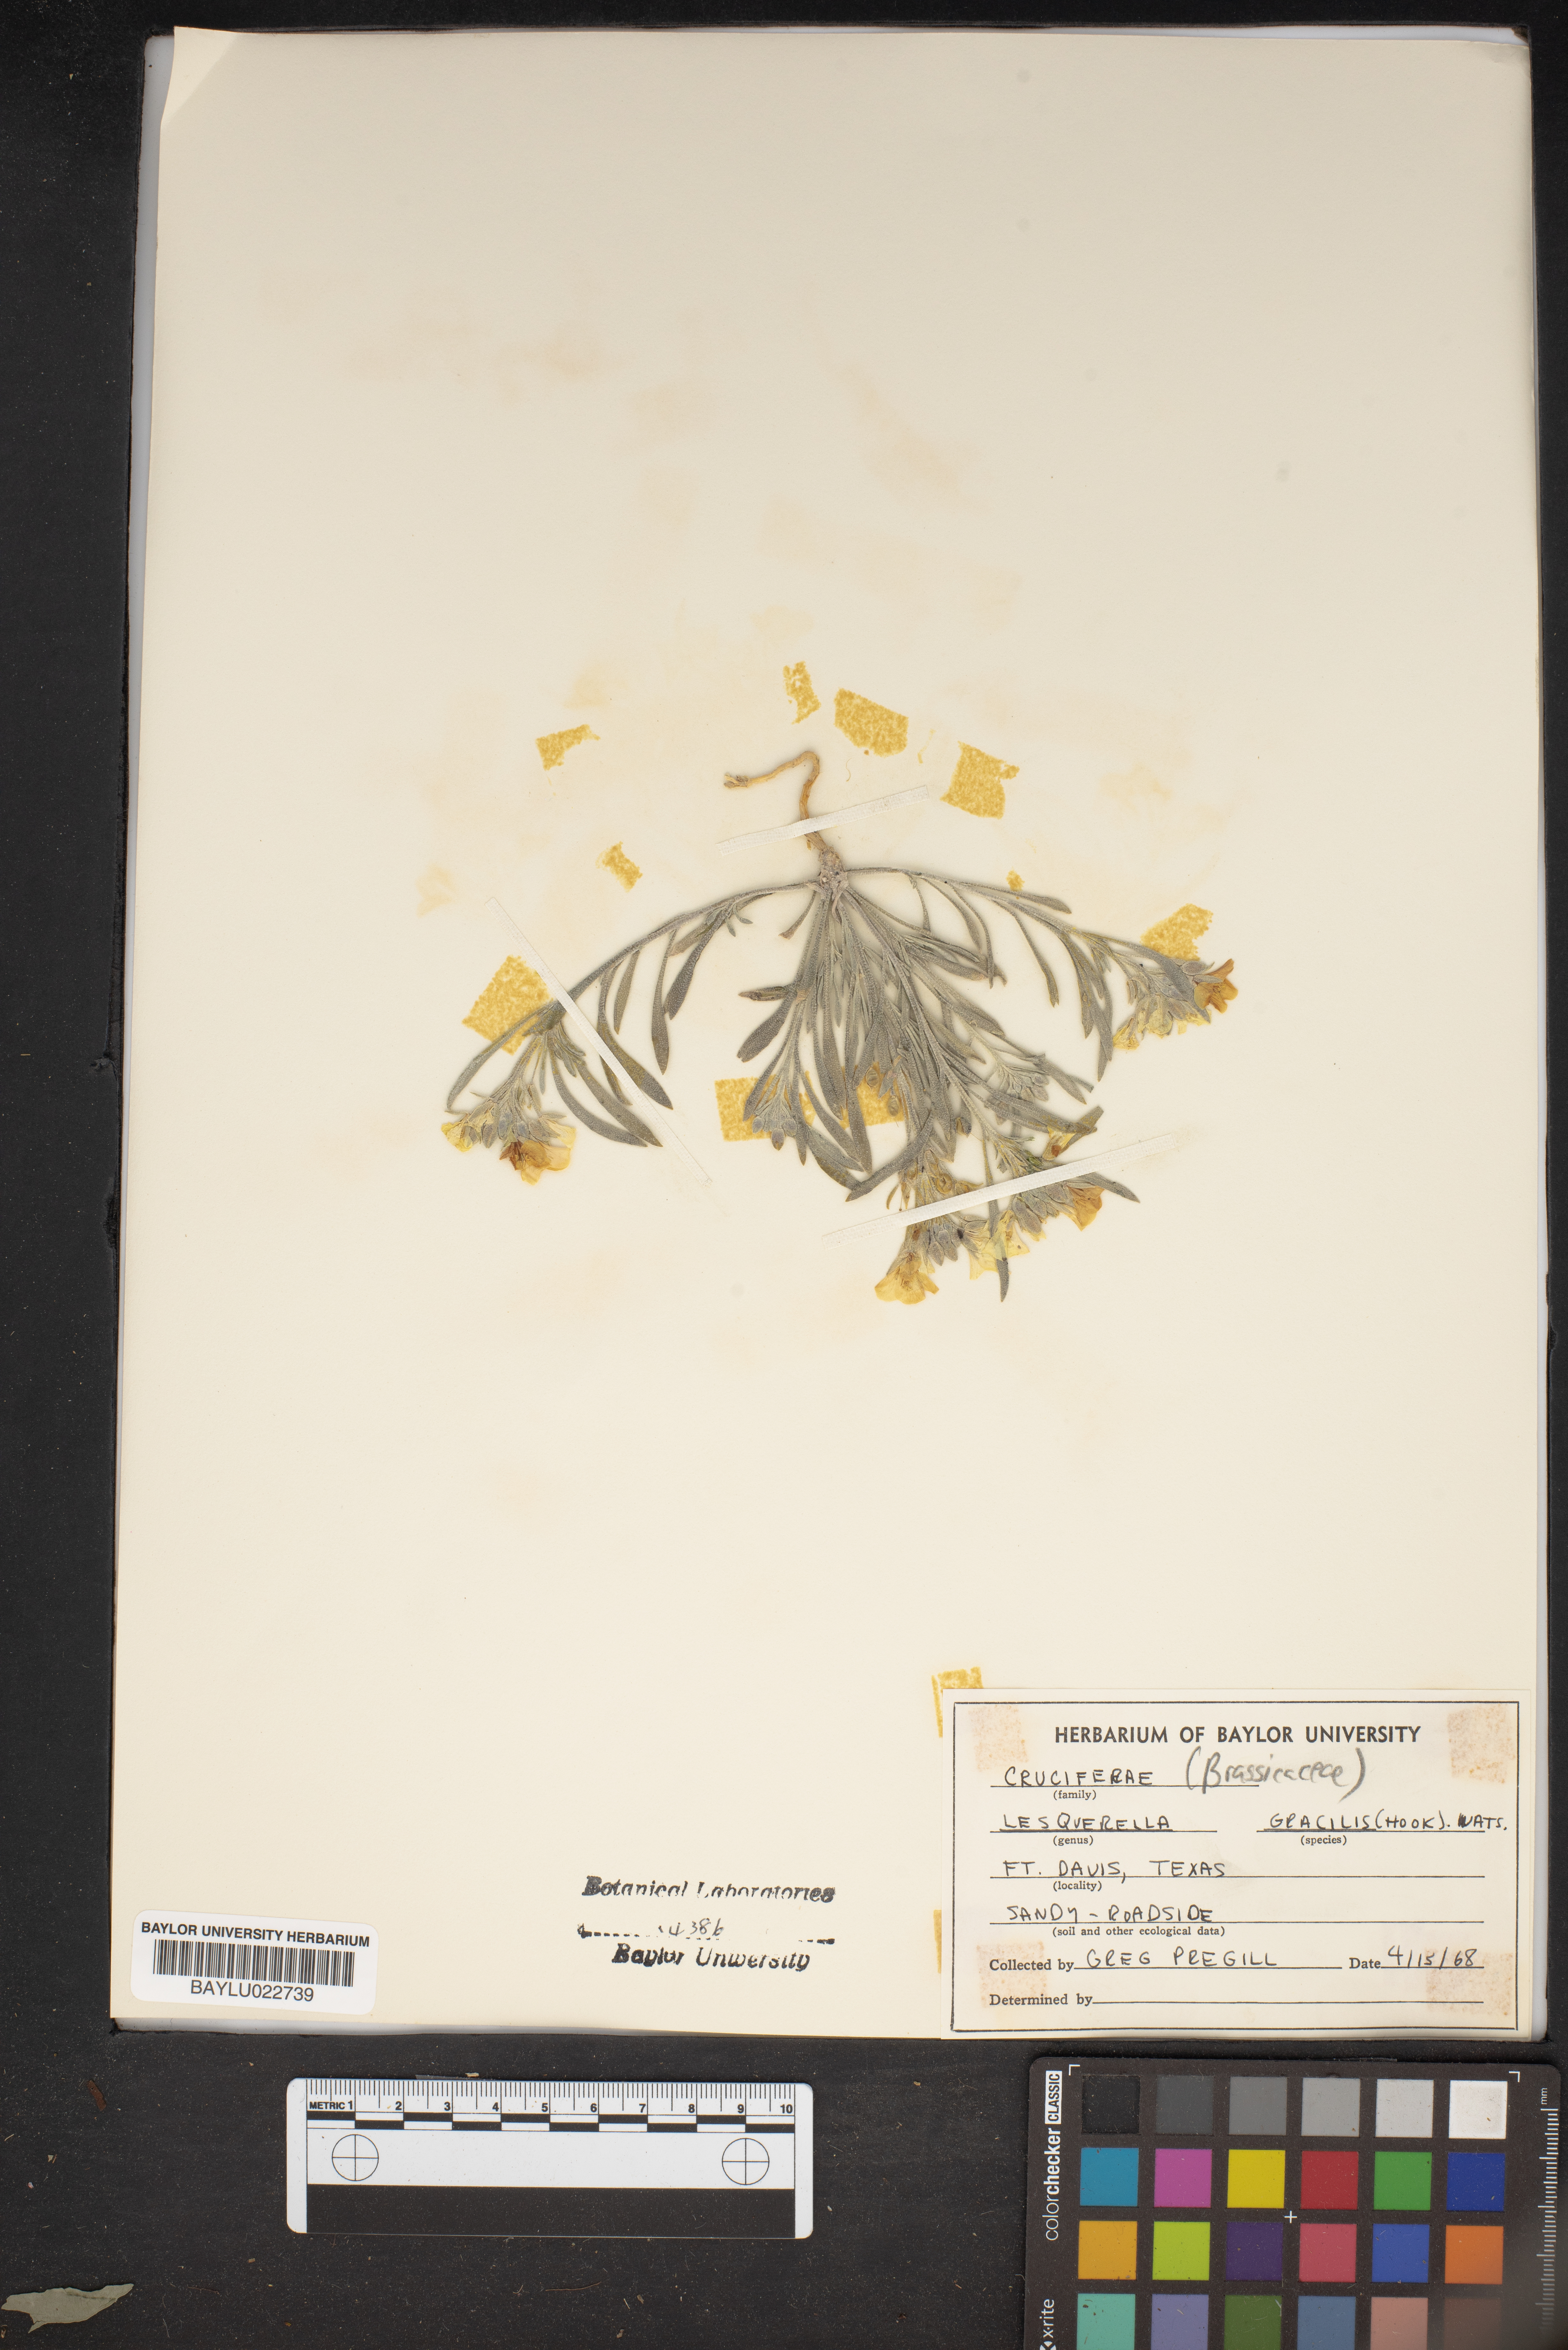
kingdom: Plantae
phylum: Tracheophyta
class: Magnoliopsida
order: Brassicales
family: Brassicaceae
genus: Physaria
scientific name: Physaria gracilis
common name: Spreading bladderpod
